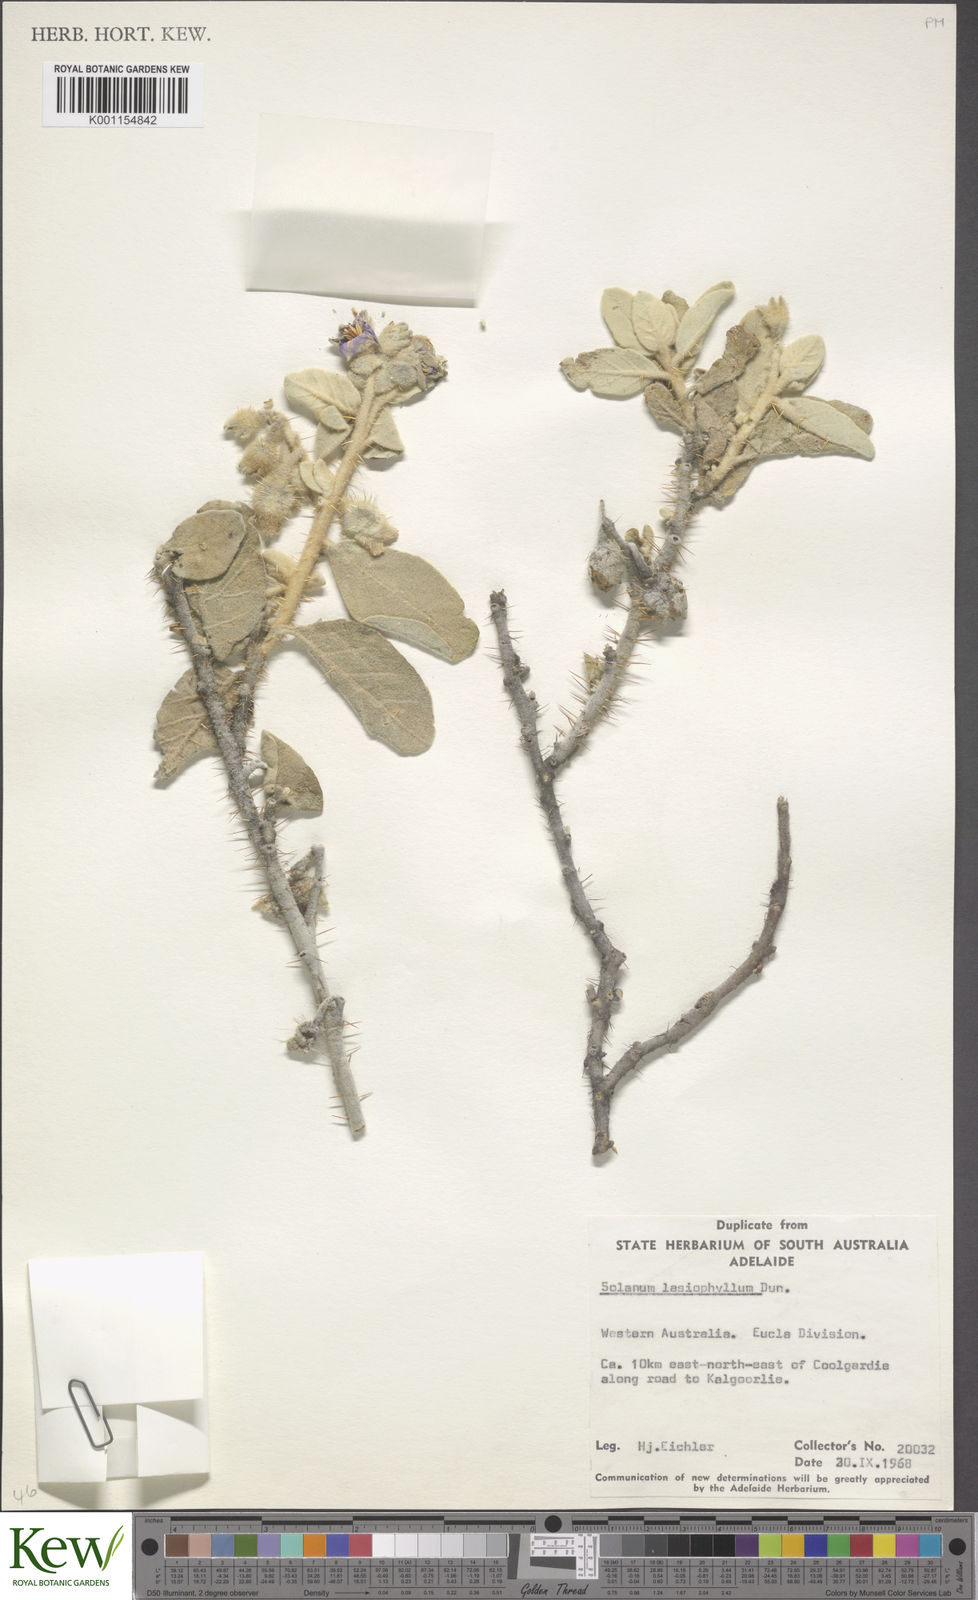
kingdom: Plantae
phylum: Tracheophyta
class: Magnoliopsida
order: Solanales
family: Solanaceae
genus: Solanum
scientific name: Solanum lasiophyllum
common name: Flannelbush
